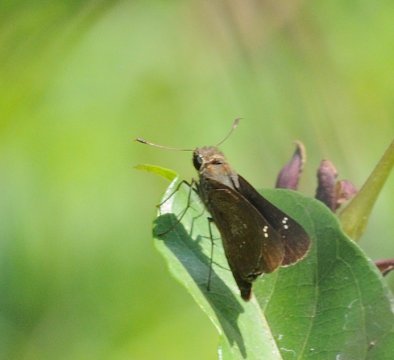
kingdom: Animalia
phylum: Arthropoda
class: Insecta
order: Lepidoptera
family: Hesperiidae
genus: Borbo
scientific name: Borbo
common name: Swifts
